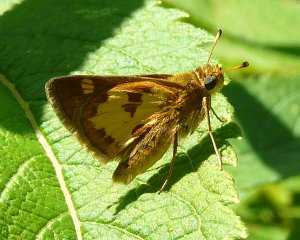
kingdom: Animalia
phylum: Arthropoda
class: Insecta
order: Lepidoptera
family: Hesperiidae
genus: Polites
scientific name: Polites coras
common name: Peck's Skipper
